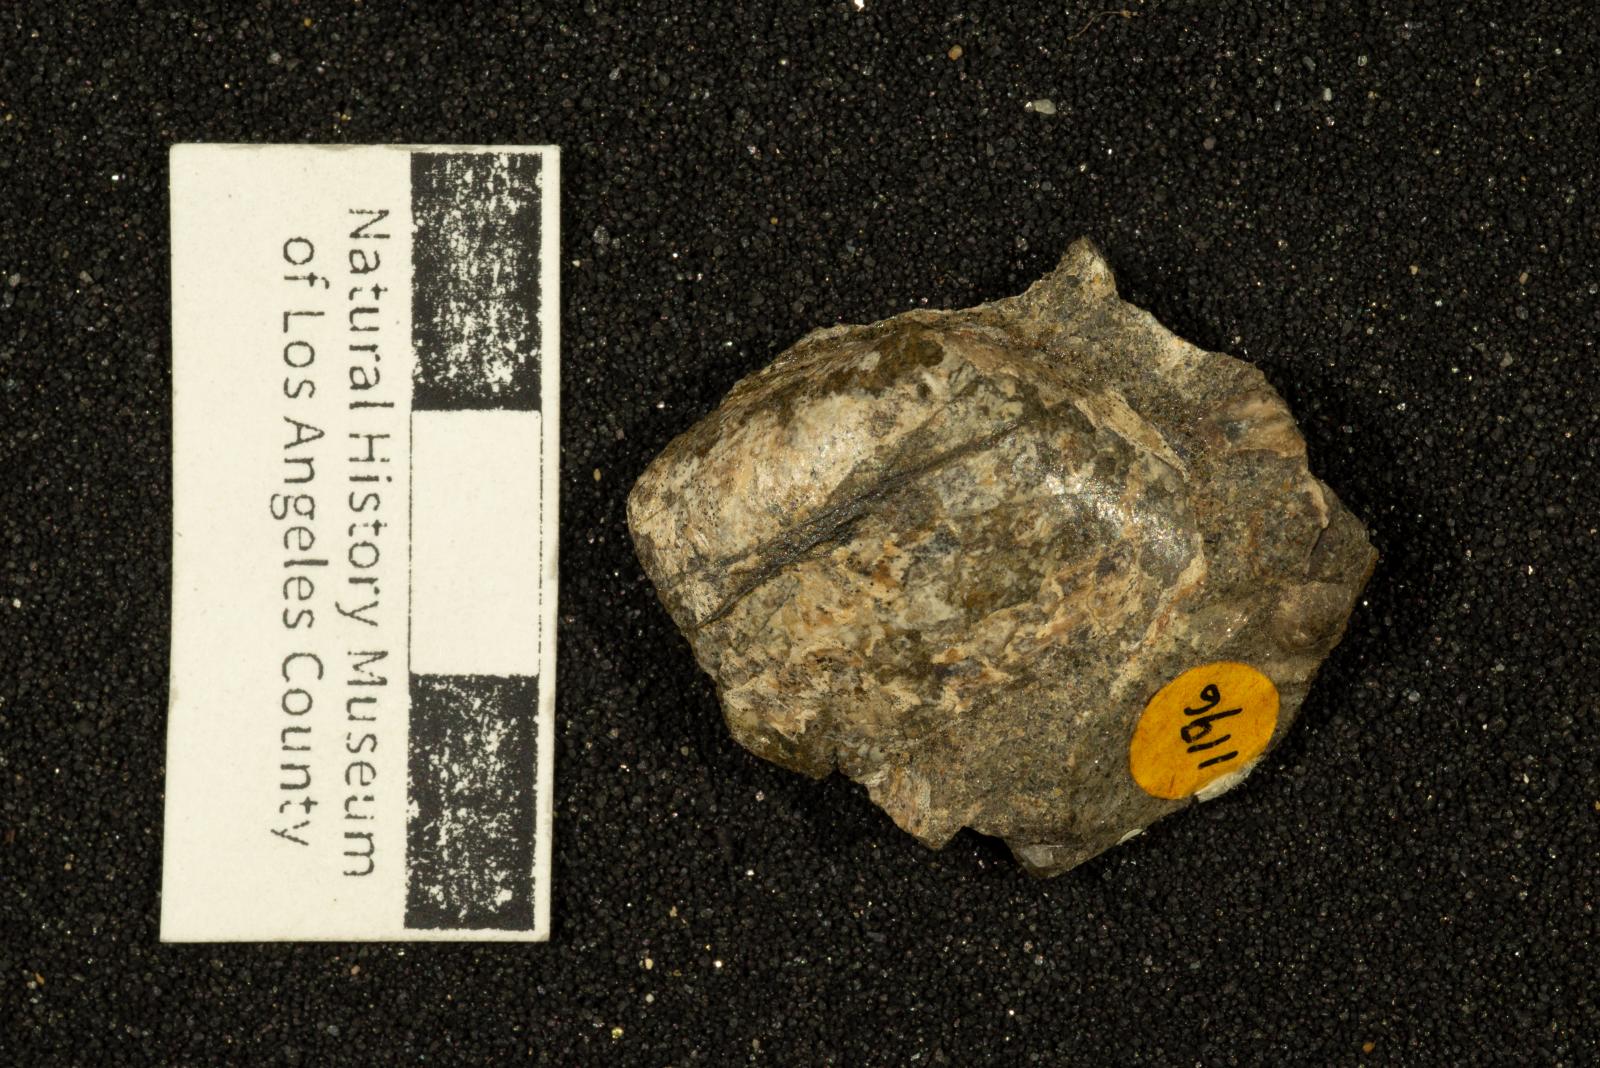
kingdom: Animalia
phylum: Mollusca
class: Bivalvia
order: Venerida
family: Mactridae
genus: Willimactra
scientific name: Willimactra putida
